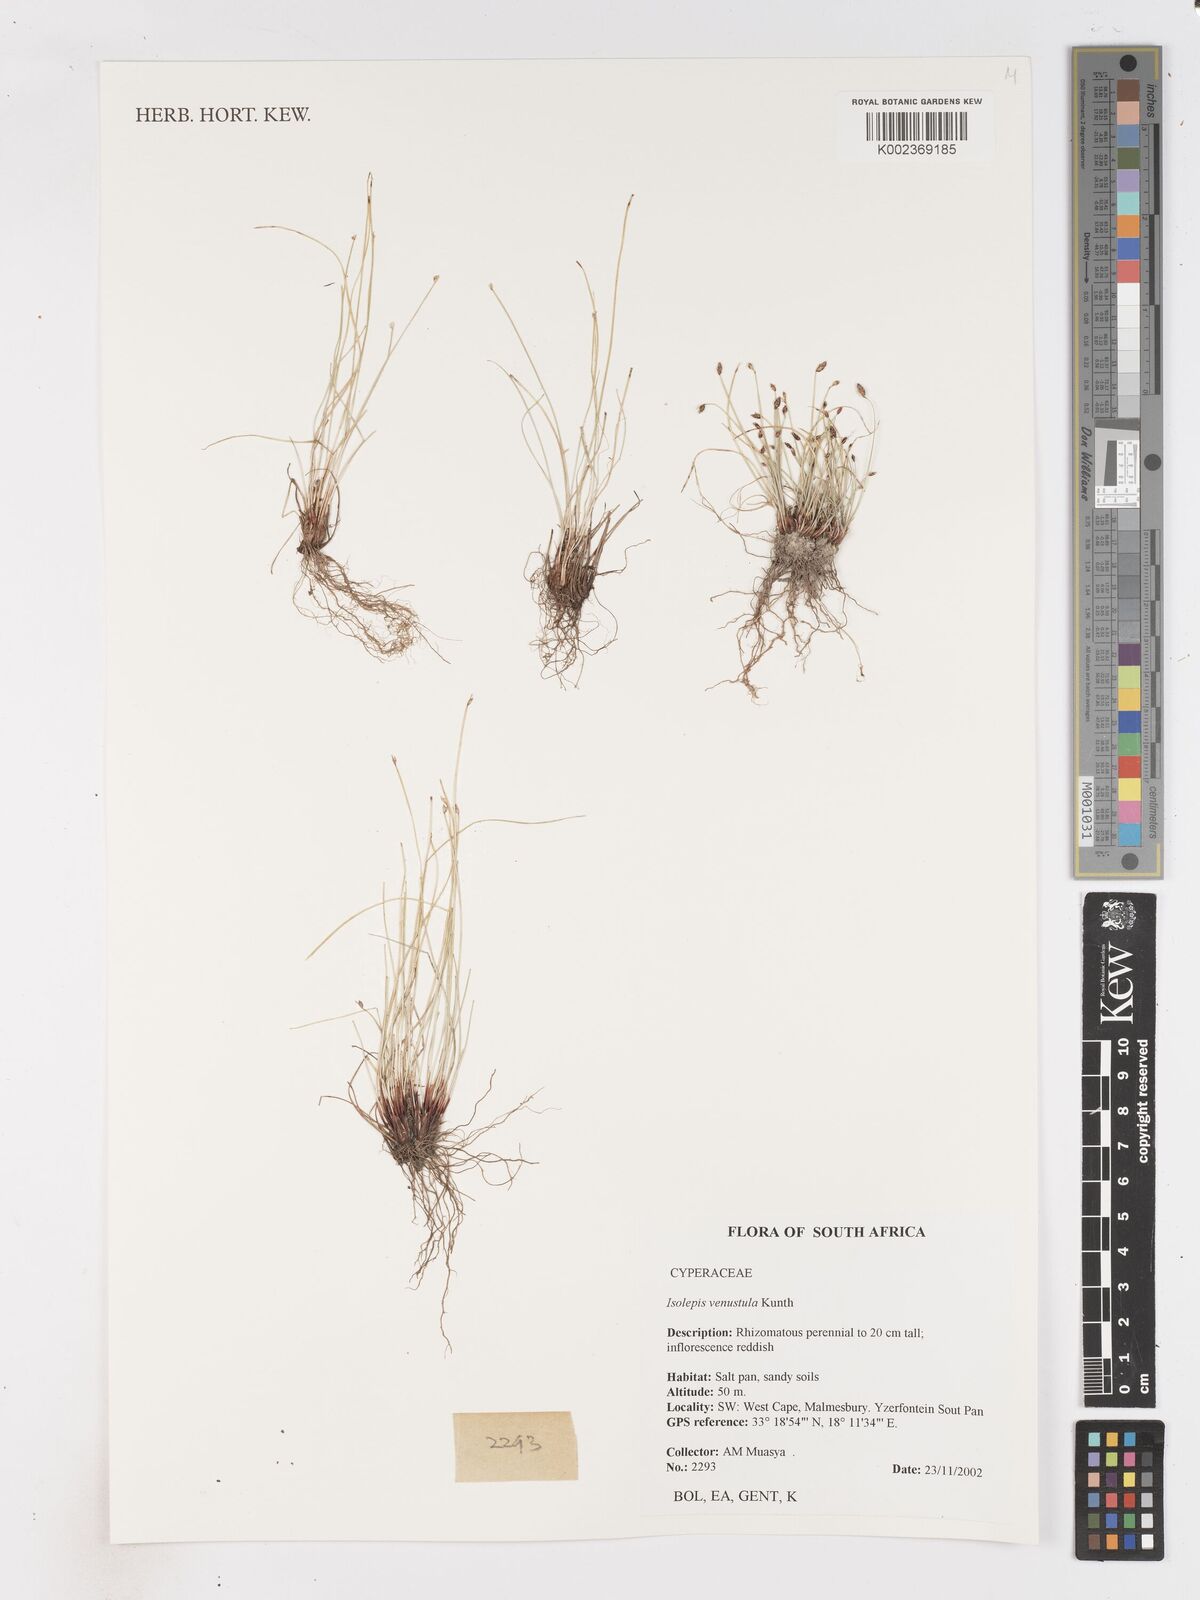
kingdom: Plantae
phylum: Tracheophyta
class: Liliopsida
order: Poales
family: Cyperaceae
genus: Isolepis
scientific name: Isolepis venustula
